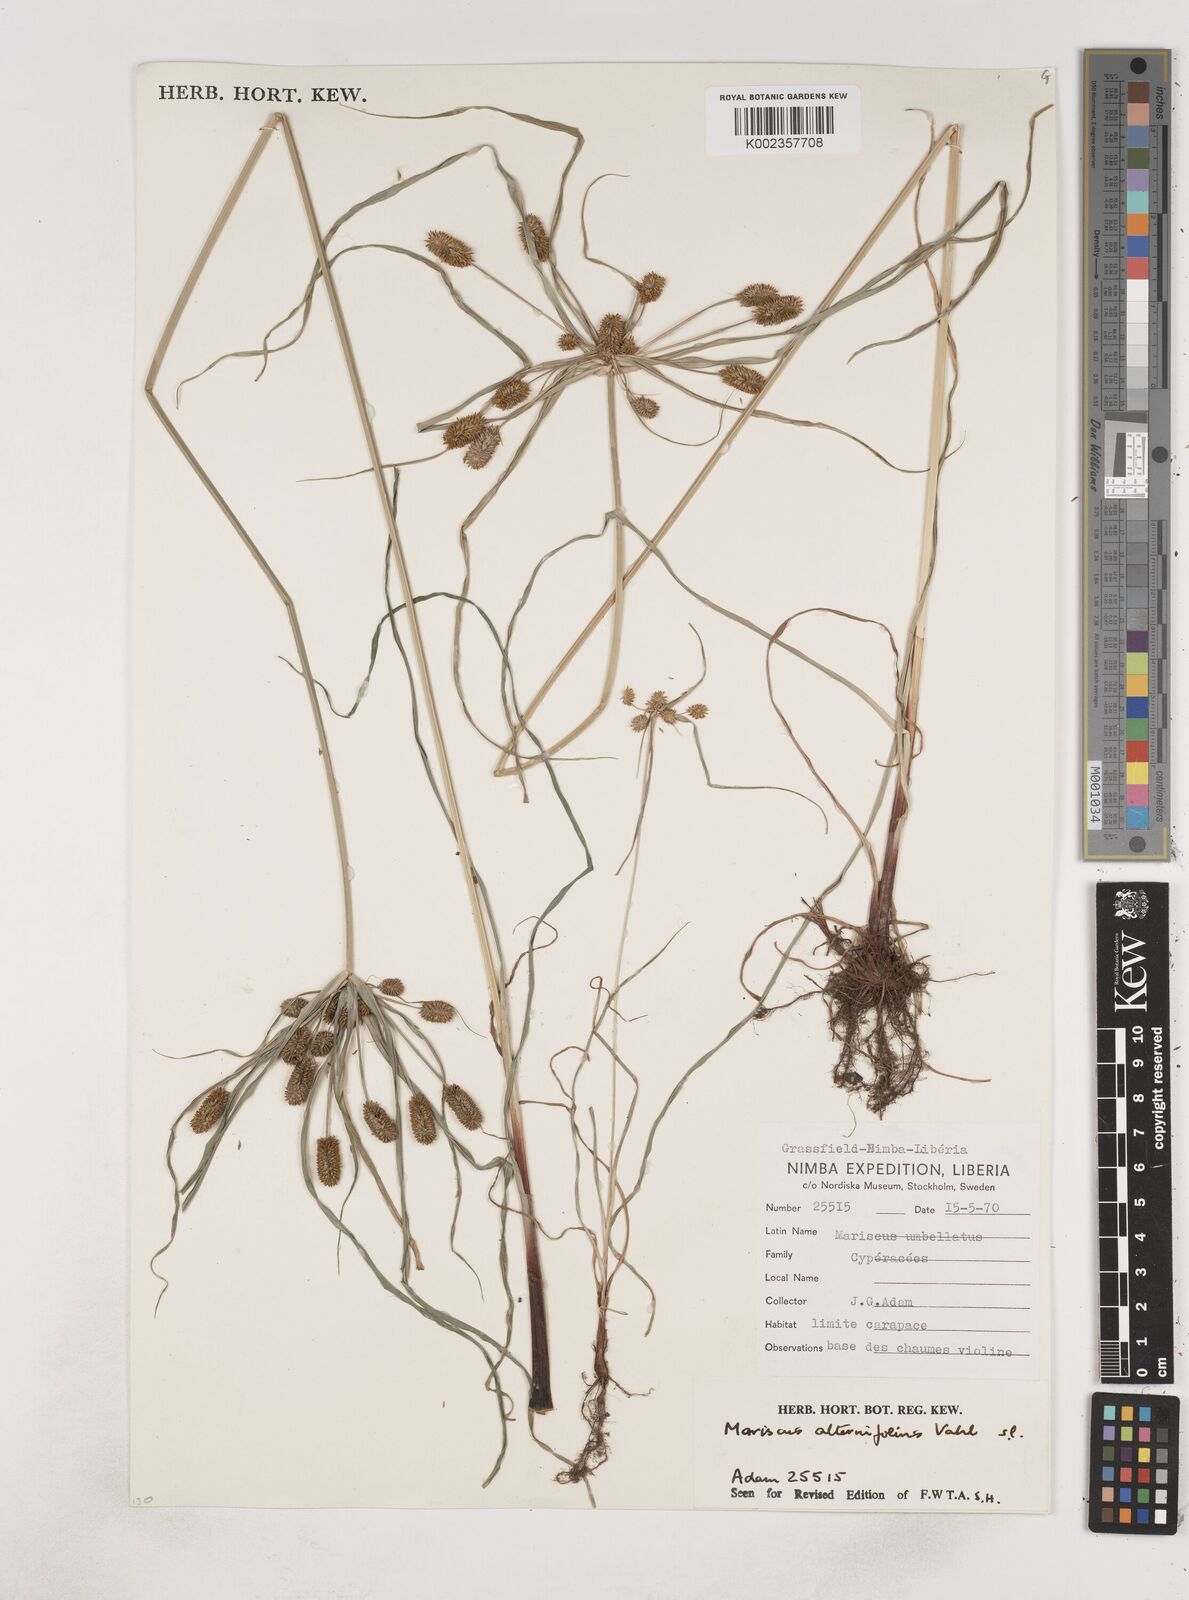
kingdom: Plantae
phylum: Tracheophyta
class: Liliopsida
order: Poales
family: Cyperaceae
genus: Cyperus
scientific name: Cyperus sublimis
